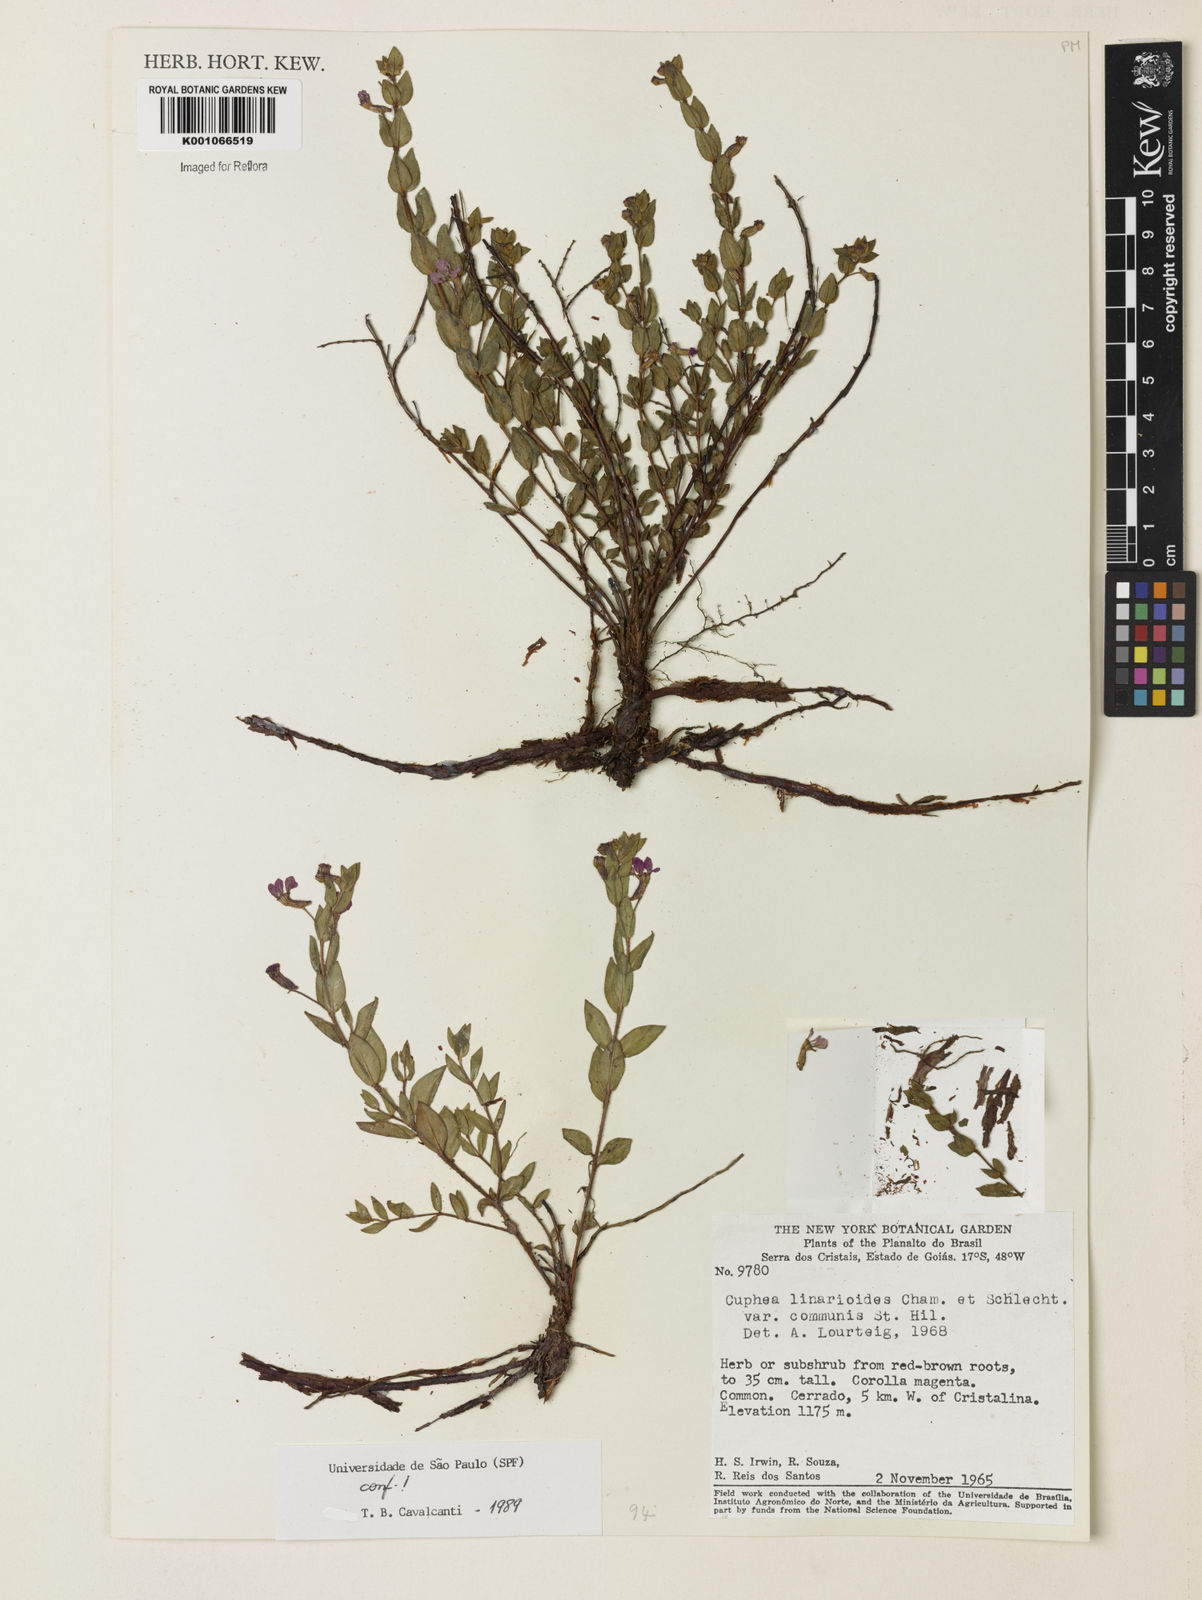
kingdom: Plantae
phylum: Tracheophyta
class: Magnoliopsida
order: Myrtales
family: Lythraceae
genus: Cuphea
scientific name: Cuphea linarioides
